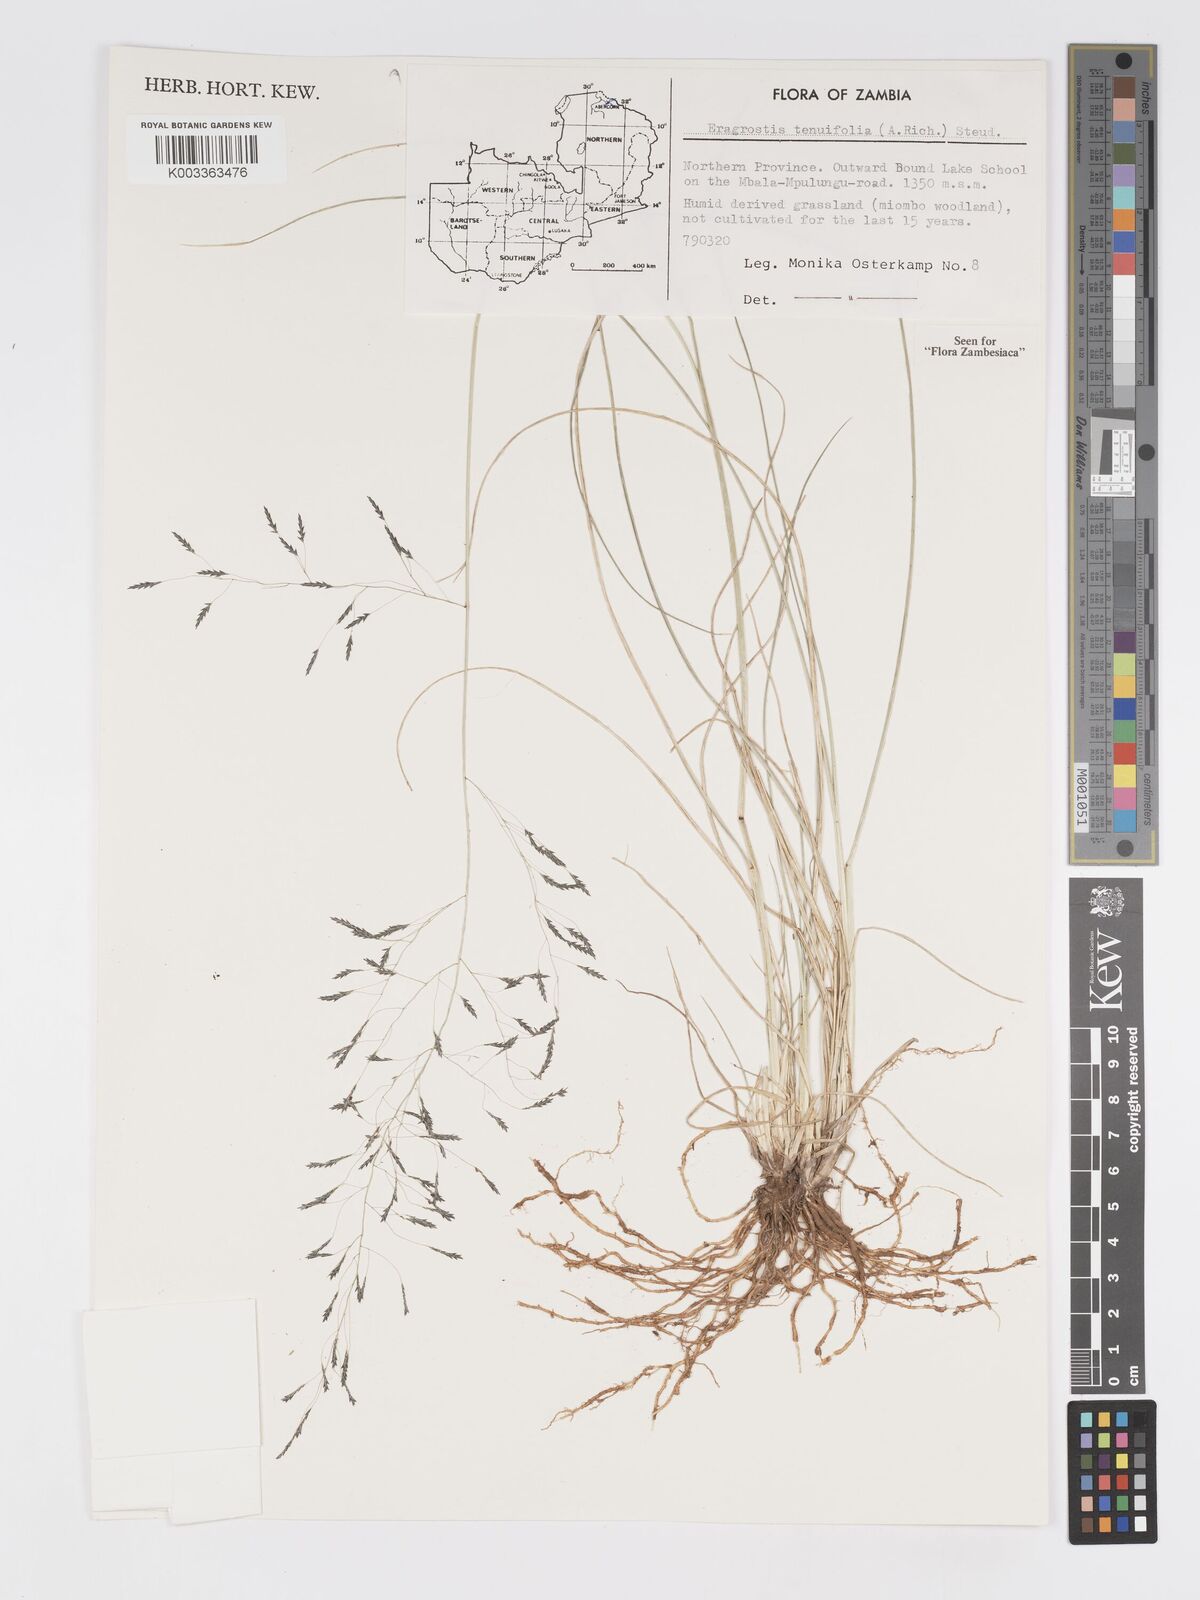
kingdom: Plantae
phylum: Tracheophyta
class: Liliopsida
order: Poales
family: Poaceae
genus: Eragrostis
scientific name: Eragrostis tenuifolia
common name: Elastic grass
